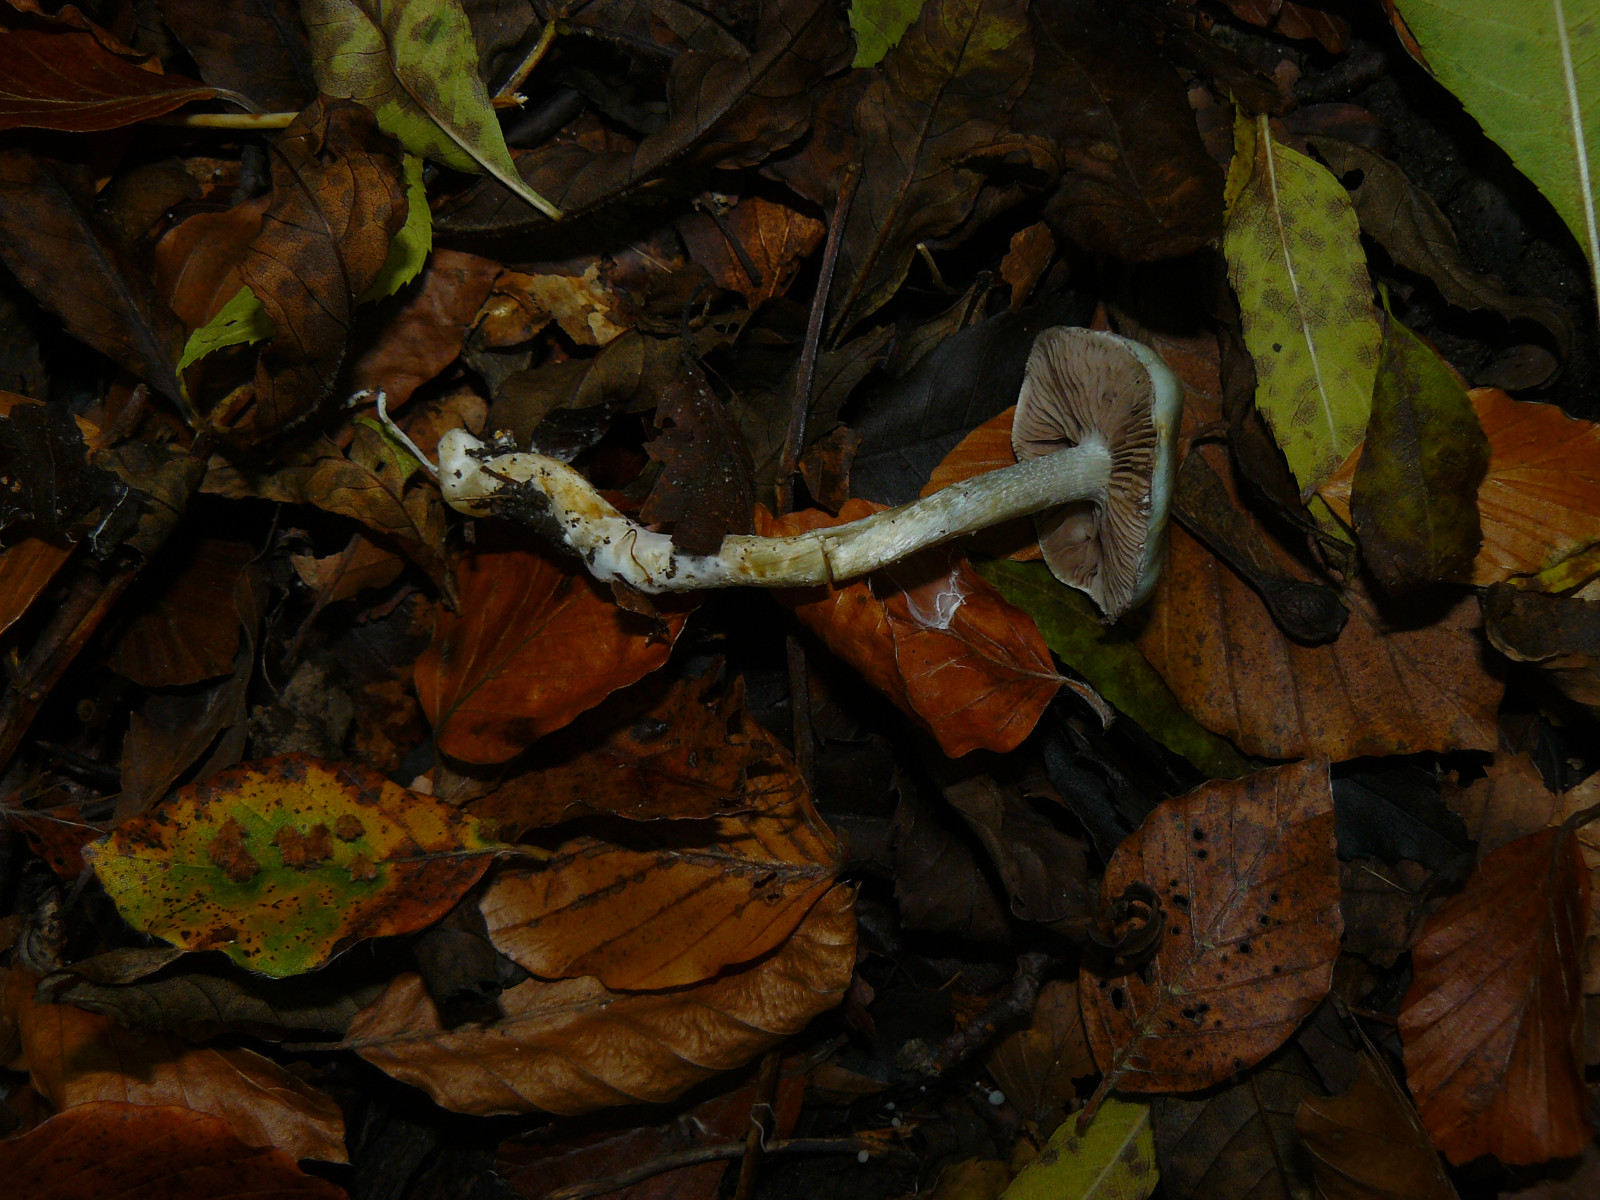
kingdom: Fungi
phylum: Basidiomycota
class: Agaricomycetes
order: Agaricales
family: Strophariaceae
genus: Stropharia
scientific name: Stropharia cyanea
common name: blågrøn bredblad
